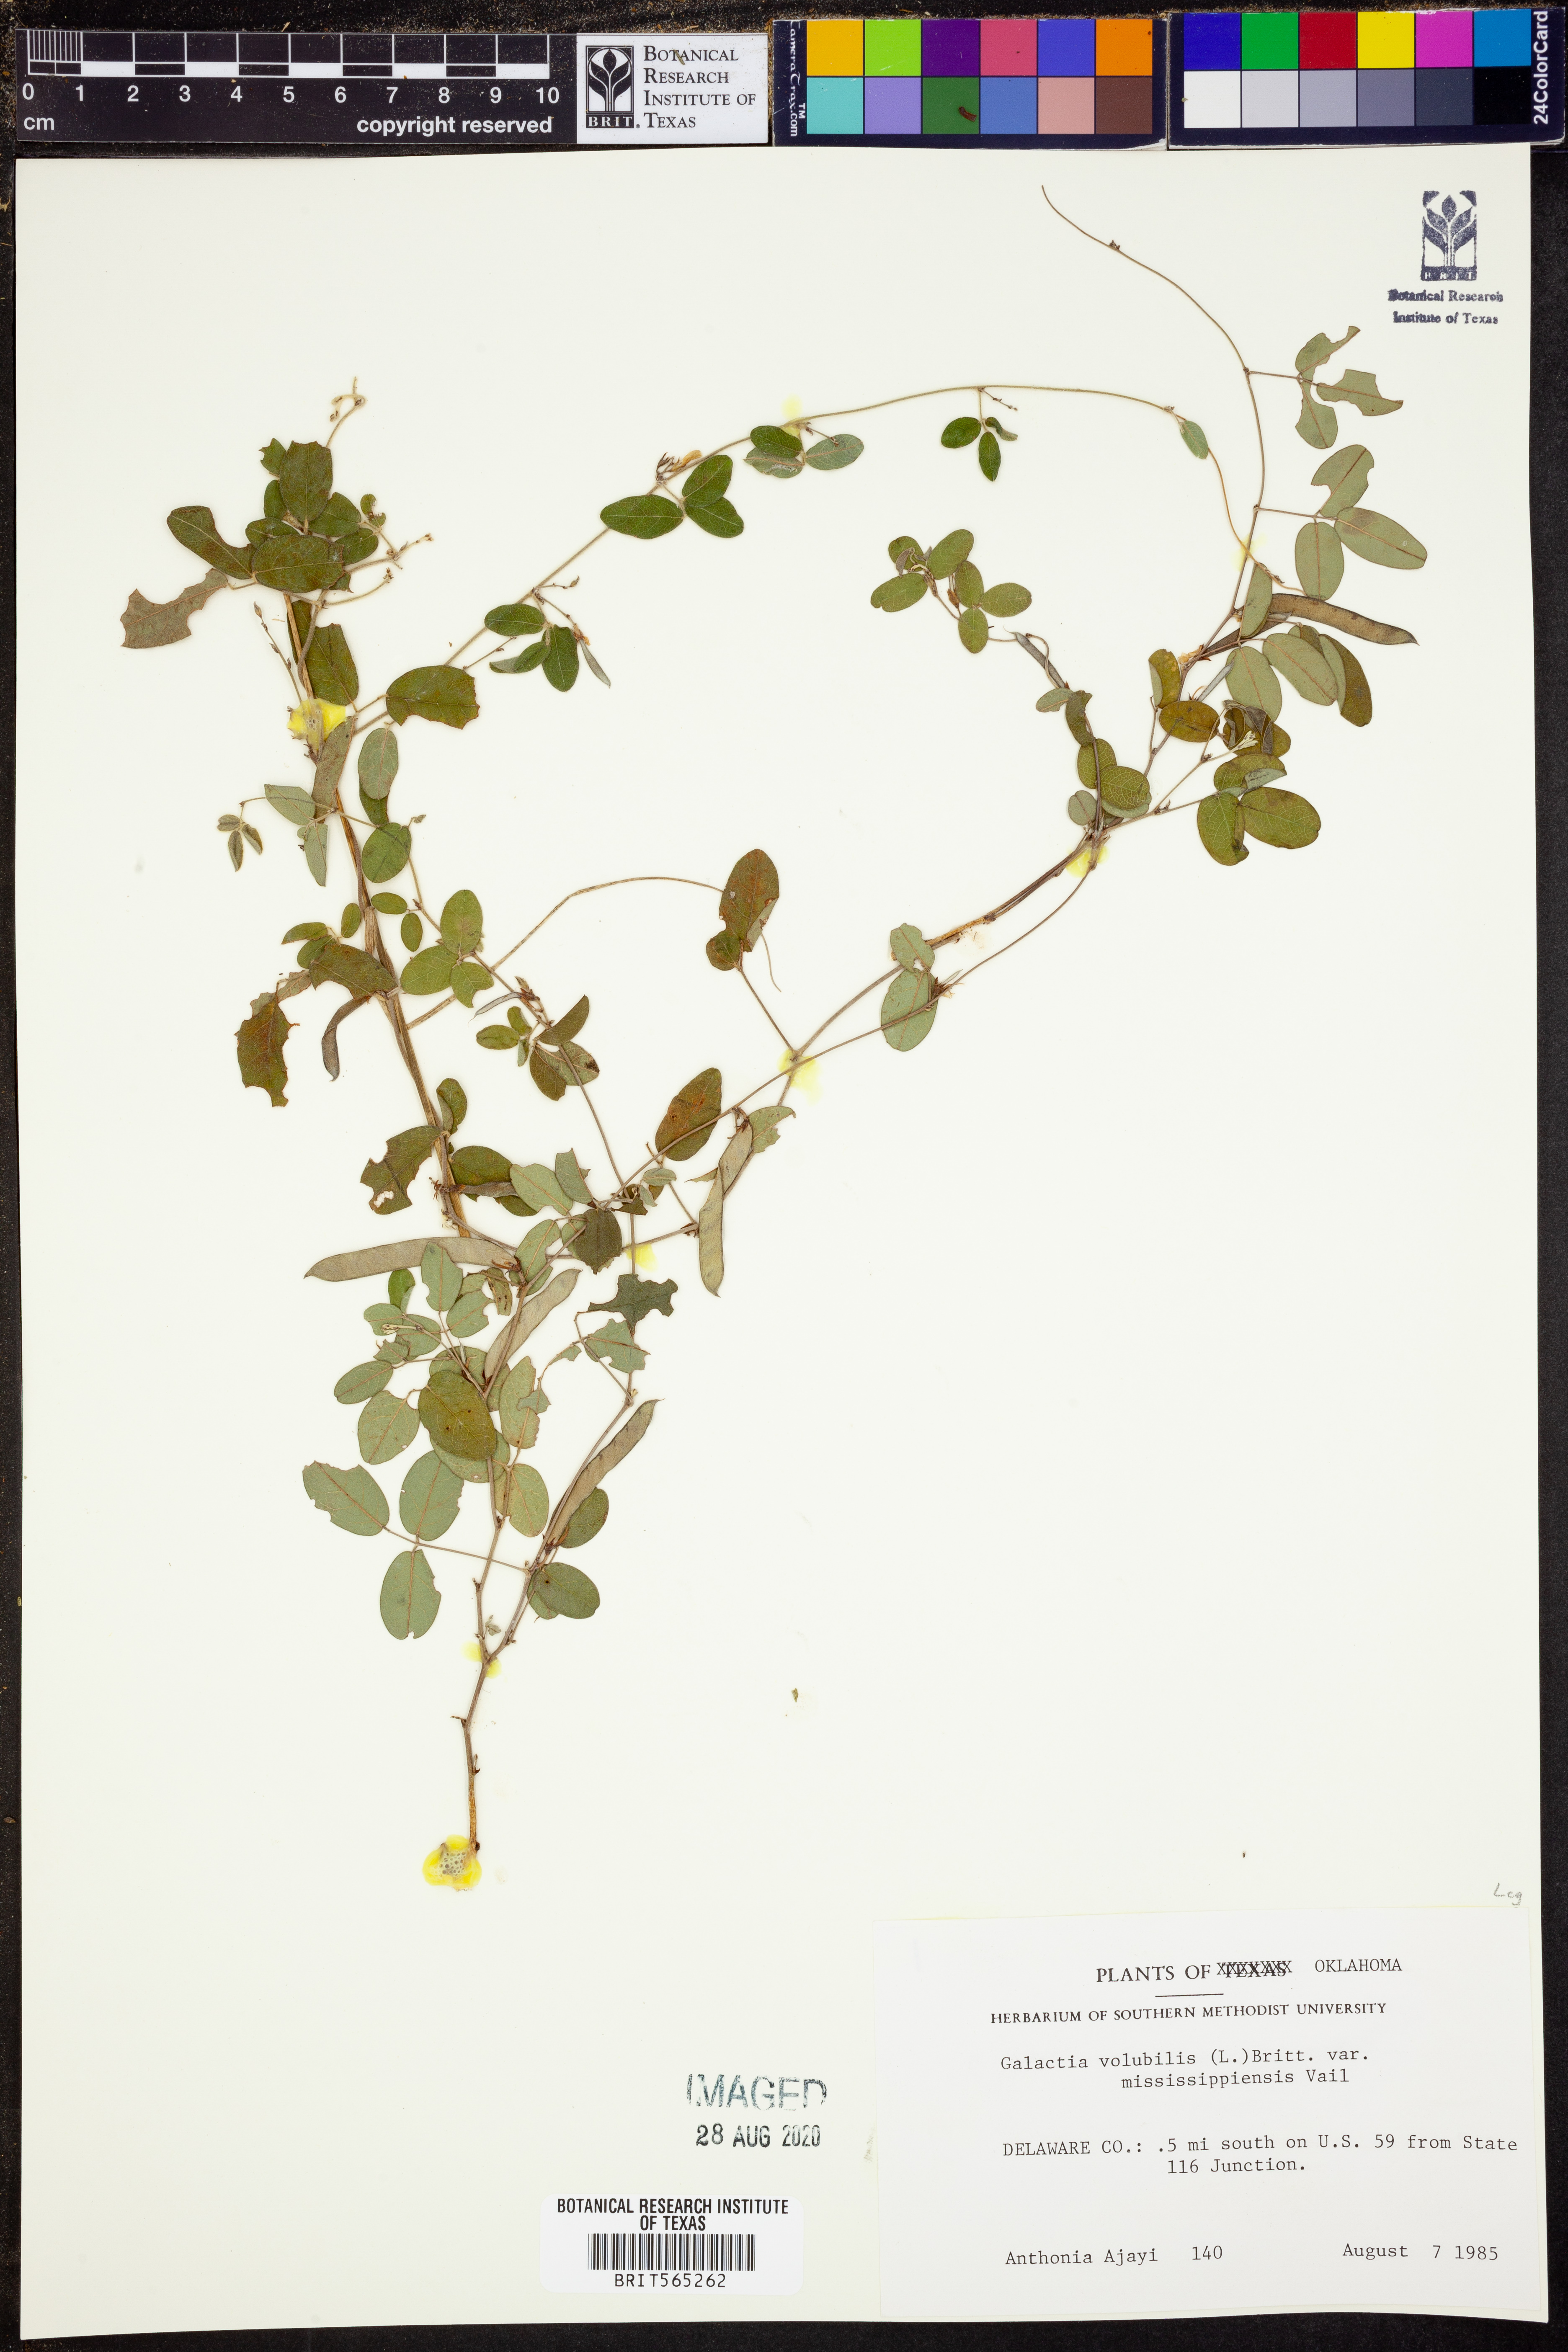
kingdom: Plantae
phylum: Tracheophyta
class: Magnoliopsida
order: Fabales
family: Fabaceae
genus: Galactia
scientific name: Galactia volubilis
